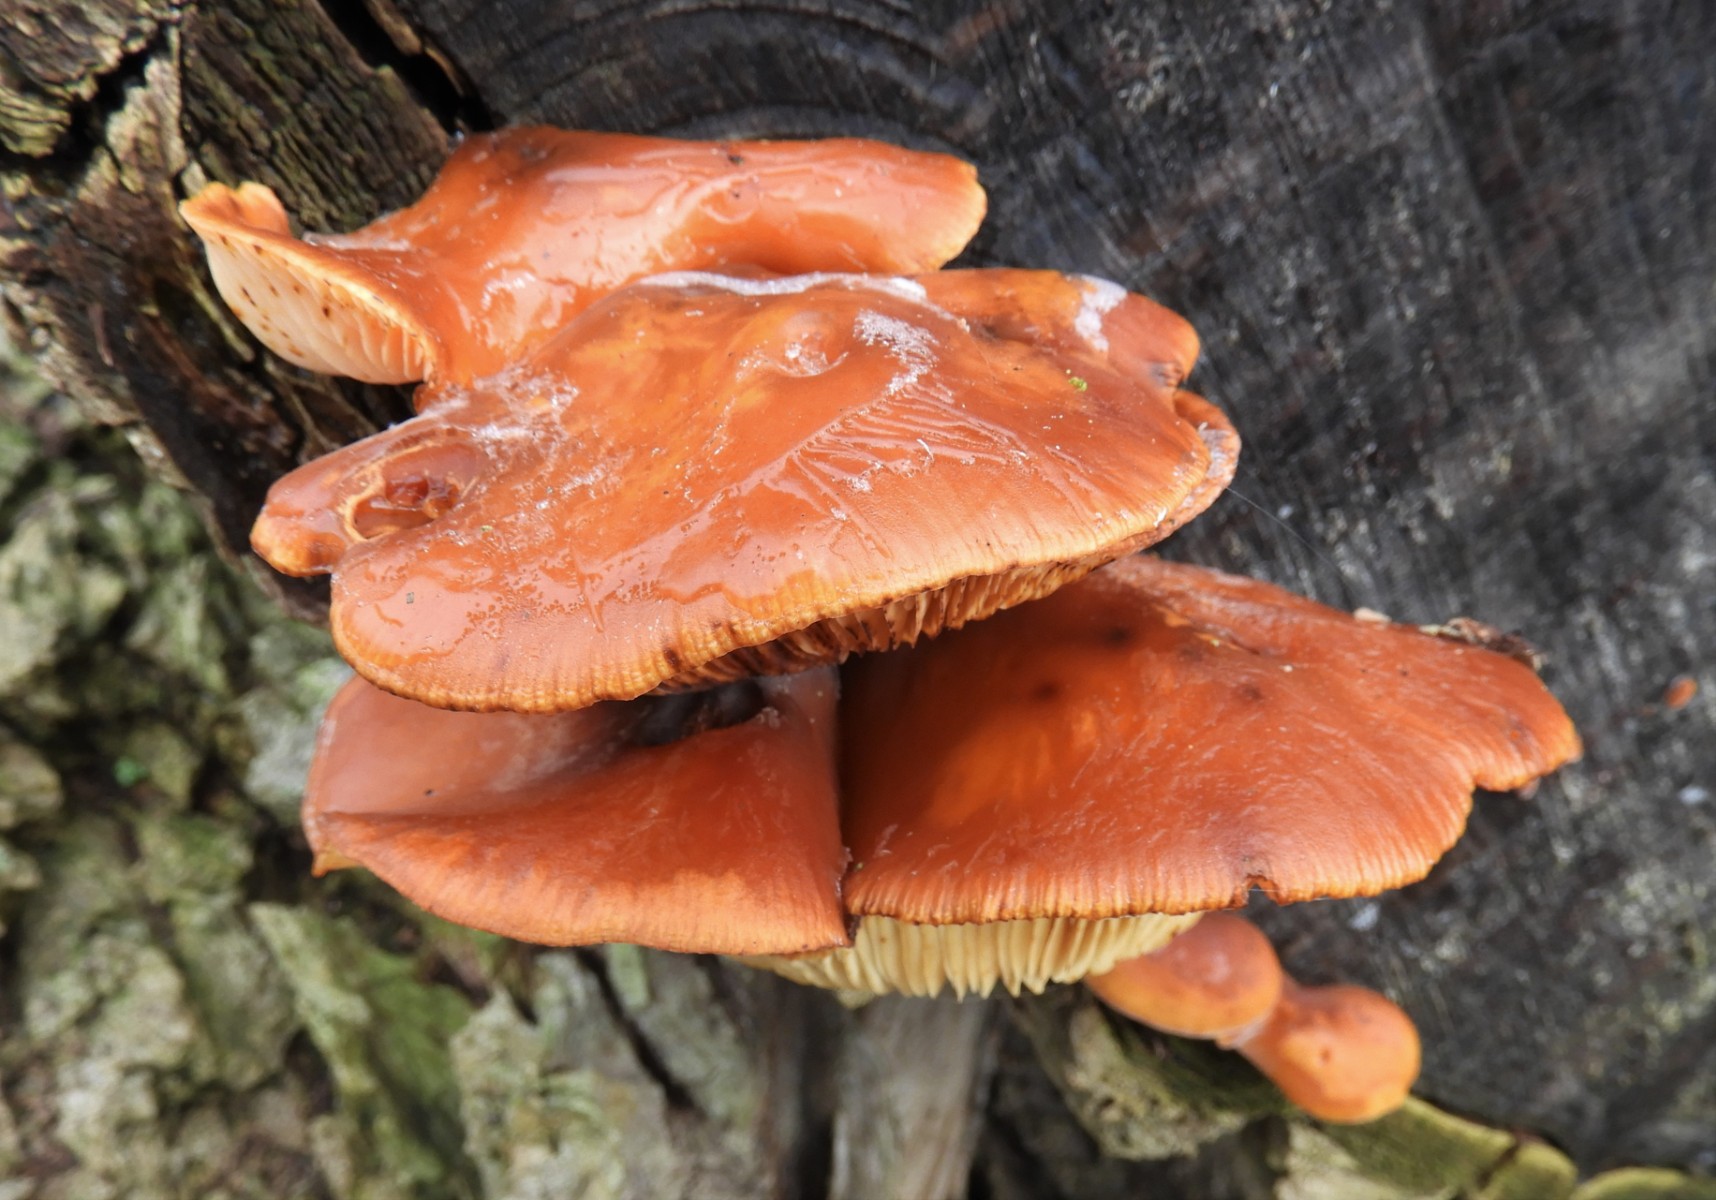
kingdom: Fungi
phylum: Basidiomycota
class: Agaricomycetes
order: Agaricales
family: Physalacriaceae
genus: Flammulina
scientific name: Flammulina velutipes
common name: gul fløjlsfod
